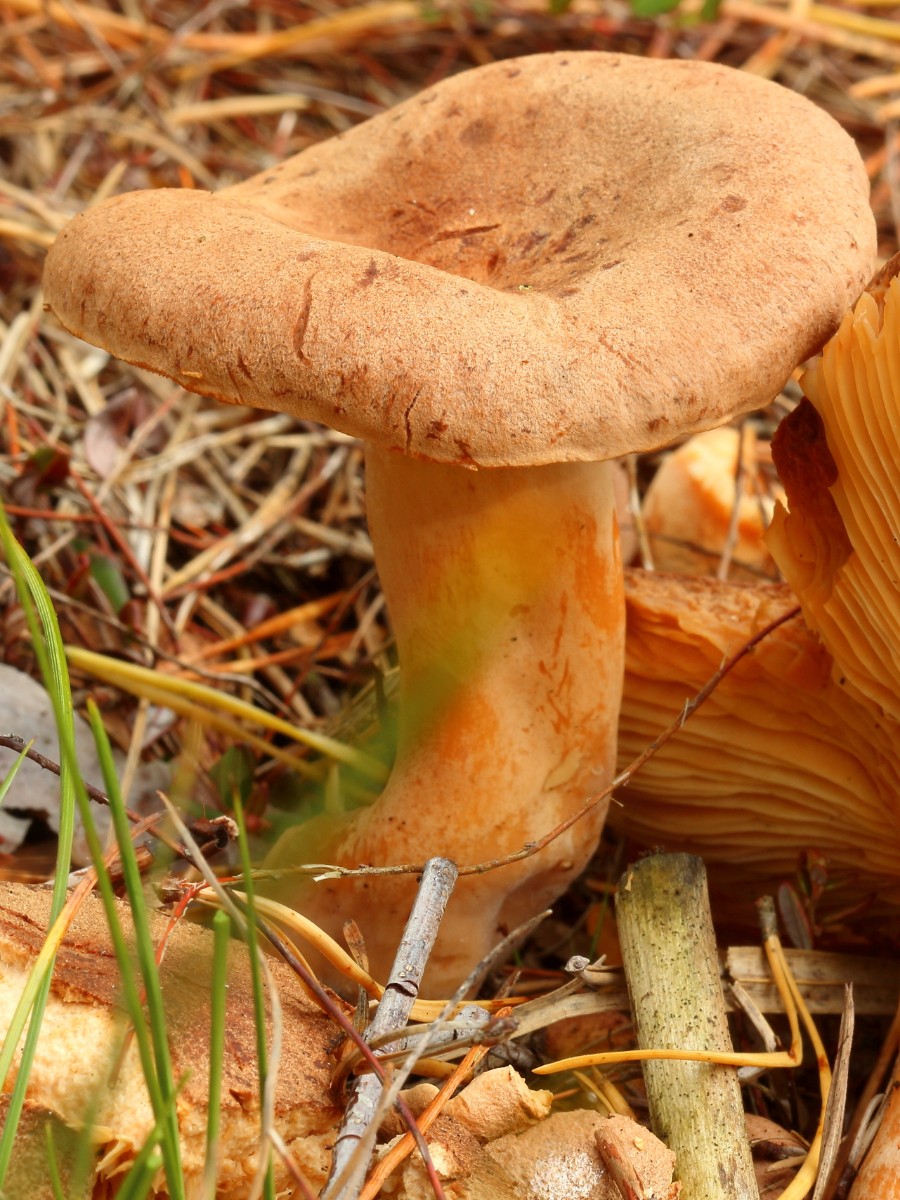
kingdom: Fungi
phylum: Basidiomycota
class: Agaricomycetes
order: Russulales
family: Russulaceae
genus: Lactarius
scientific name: Lactarius helvus
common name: mose-mælkehat
